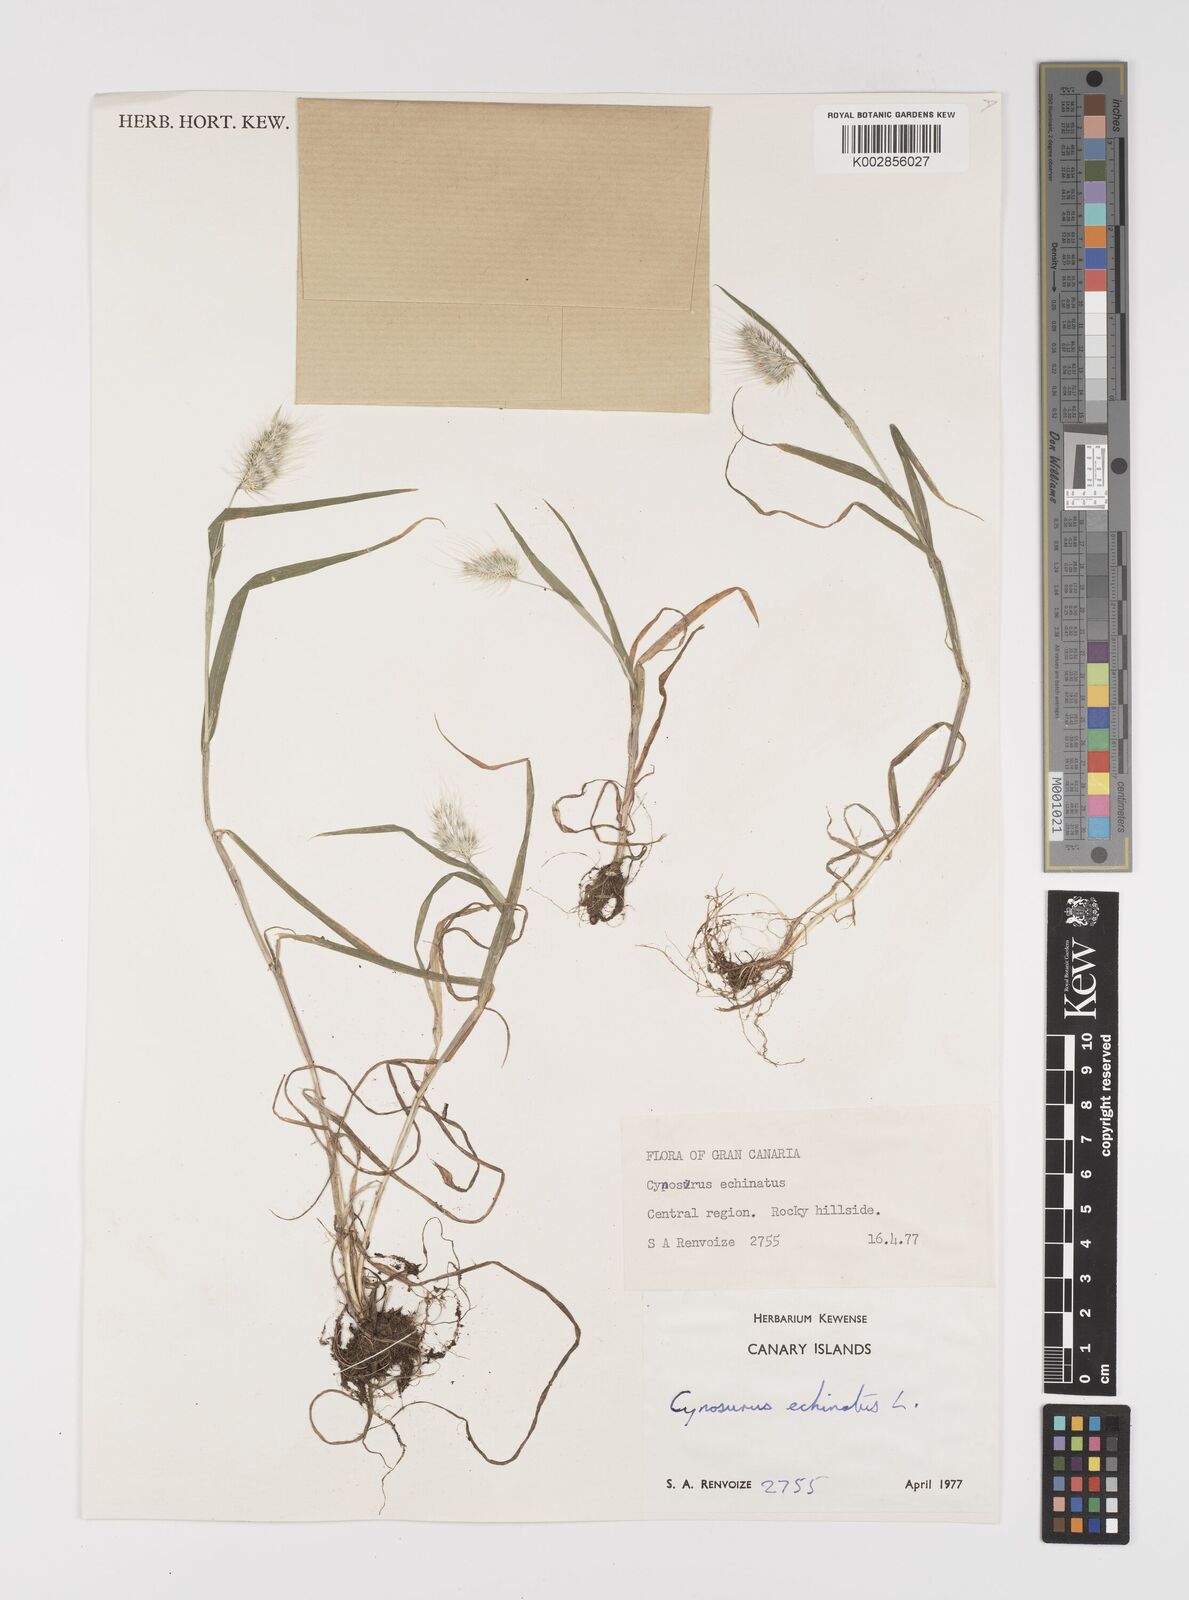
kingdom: Plantae
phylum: Tracheophyta
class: Liliopsida
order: Poales
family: Poaceae
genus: Cynosurus
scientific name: Cynosurus echinatus
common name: Rough dog's-tail
